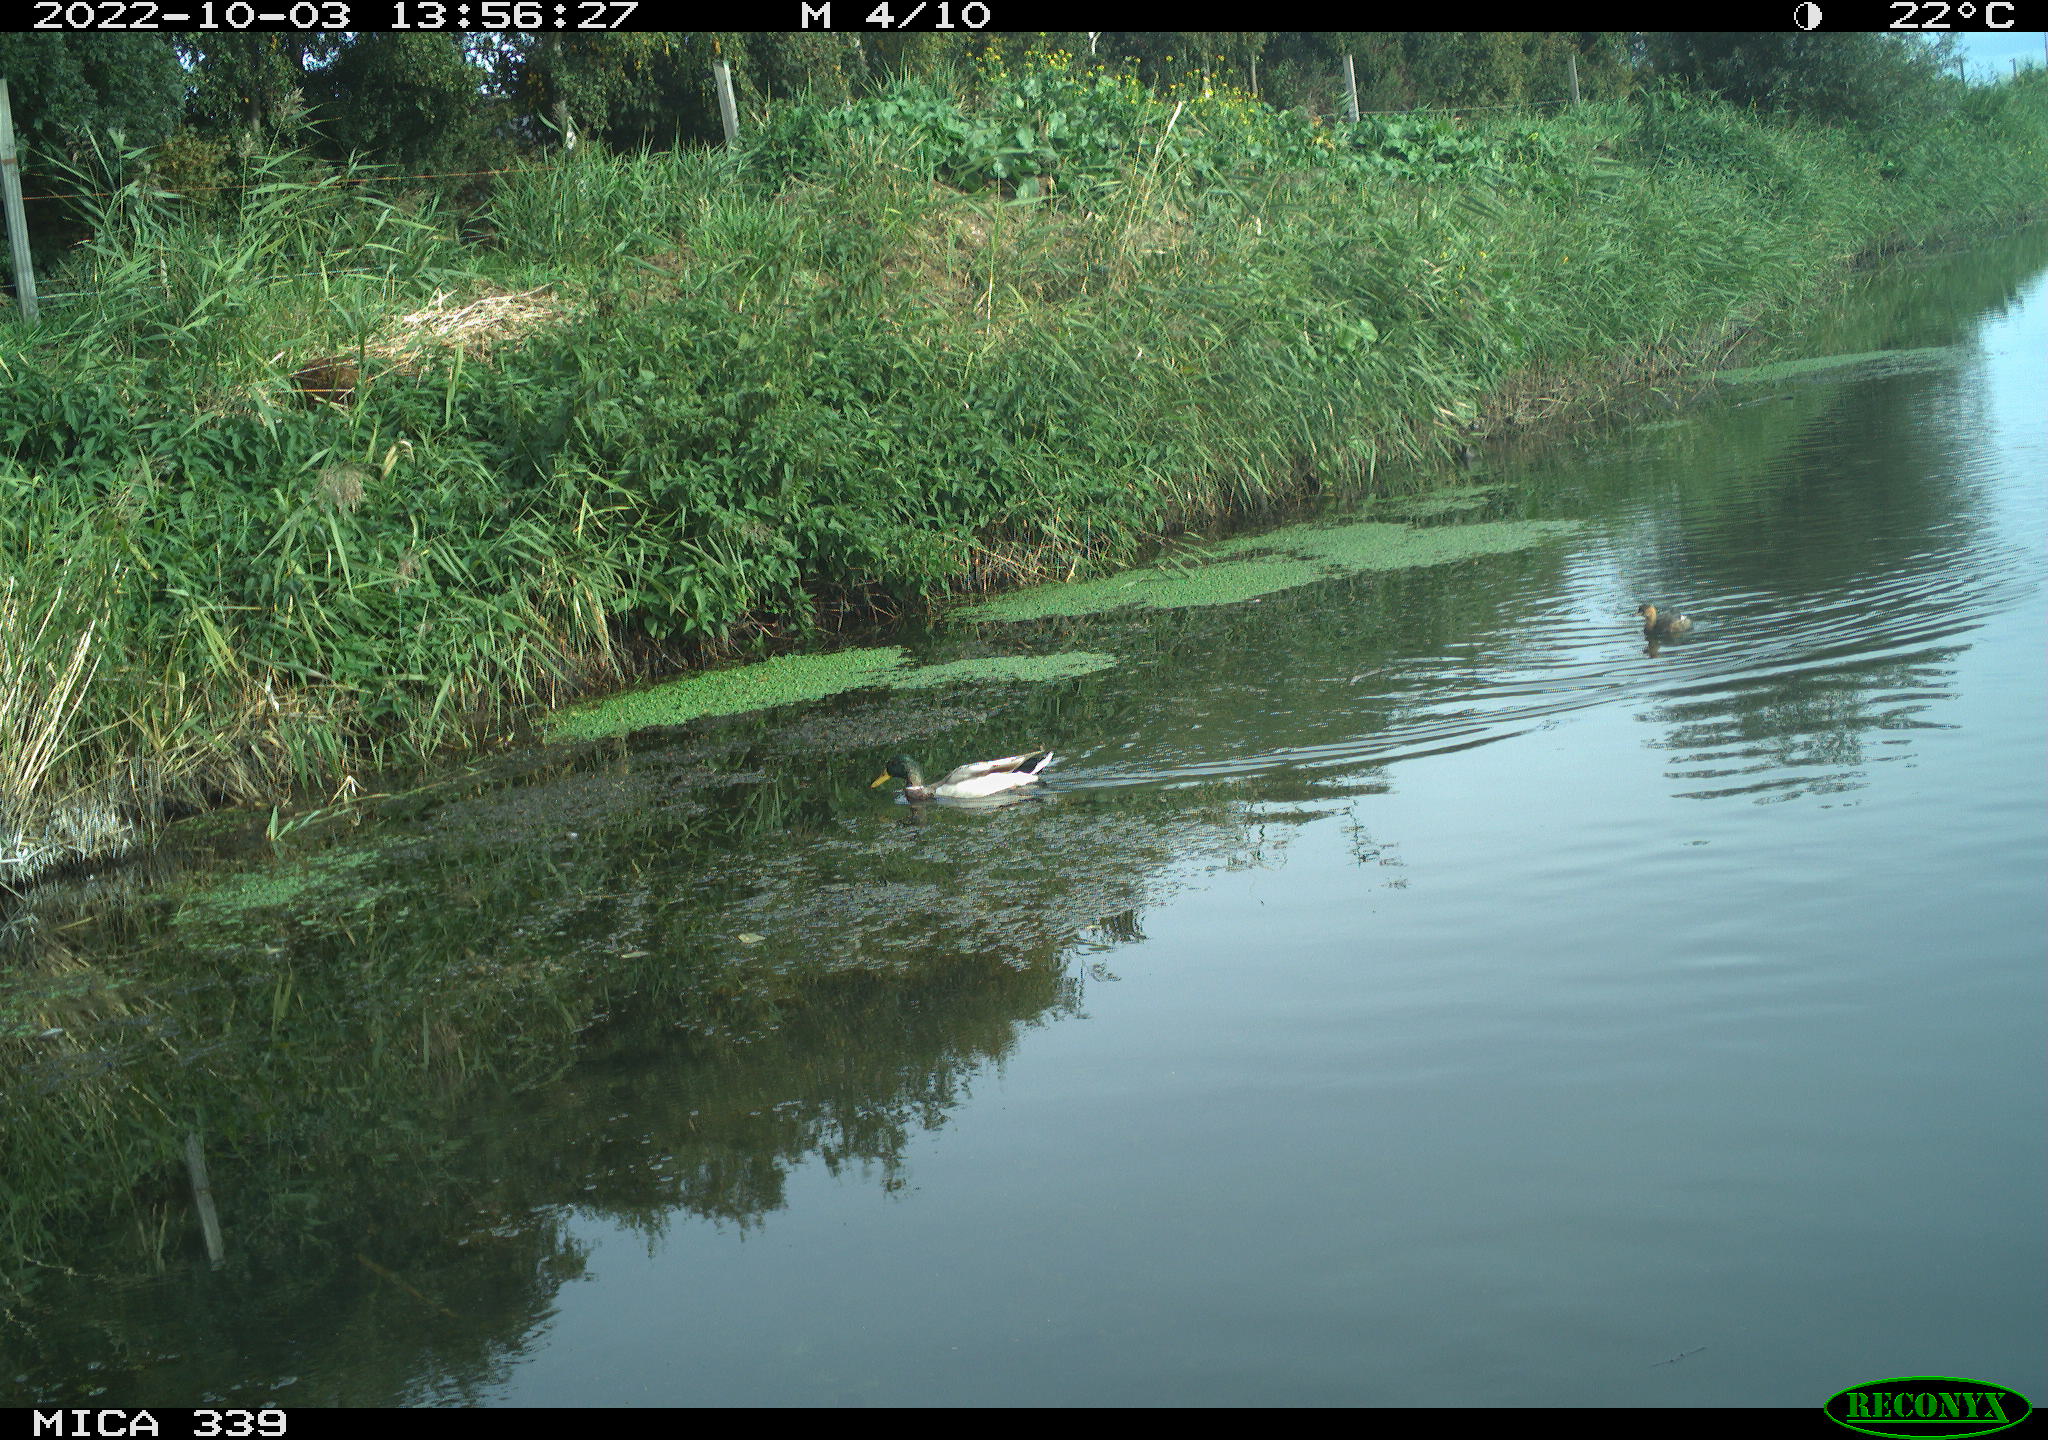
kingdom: Animalia
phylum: Chordata
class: Aves
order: Anseriformes
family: Anatidae
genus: Anas
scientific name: Anas platyrhynchos
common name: Mallard
